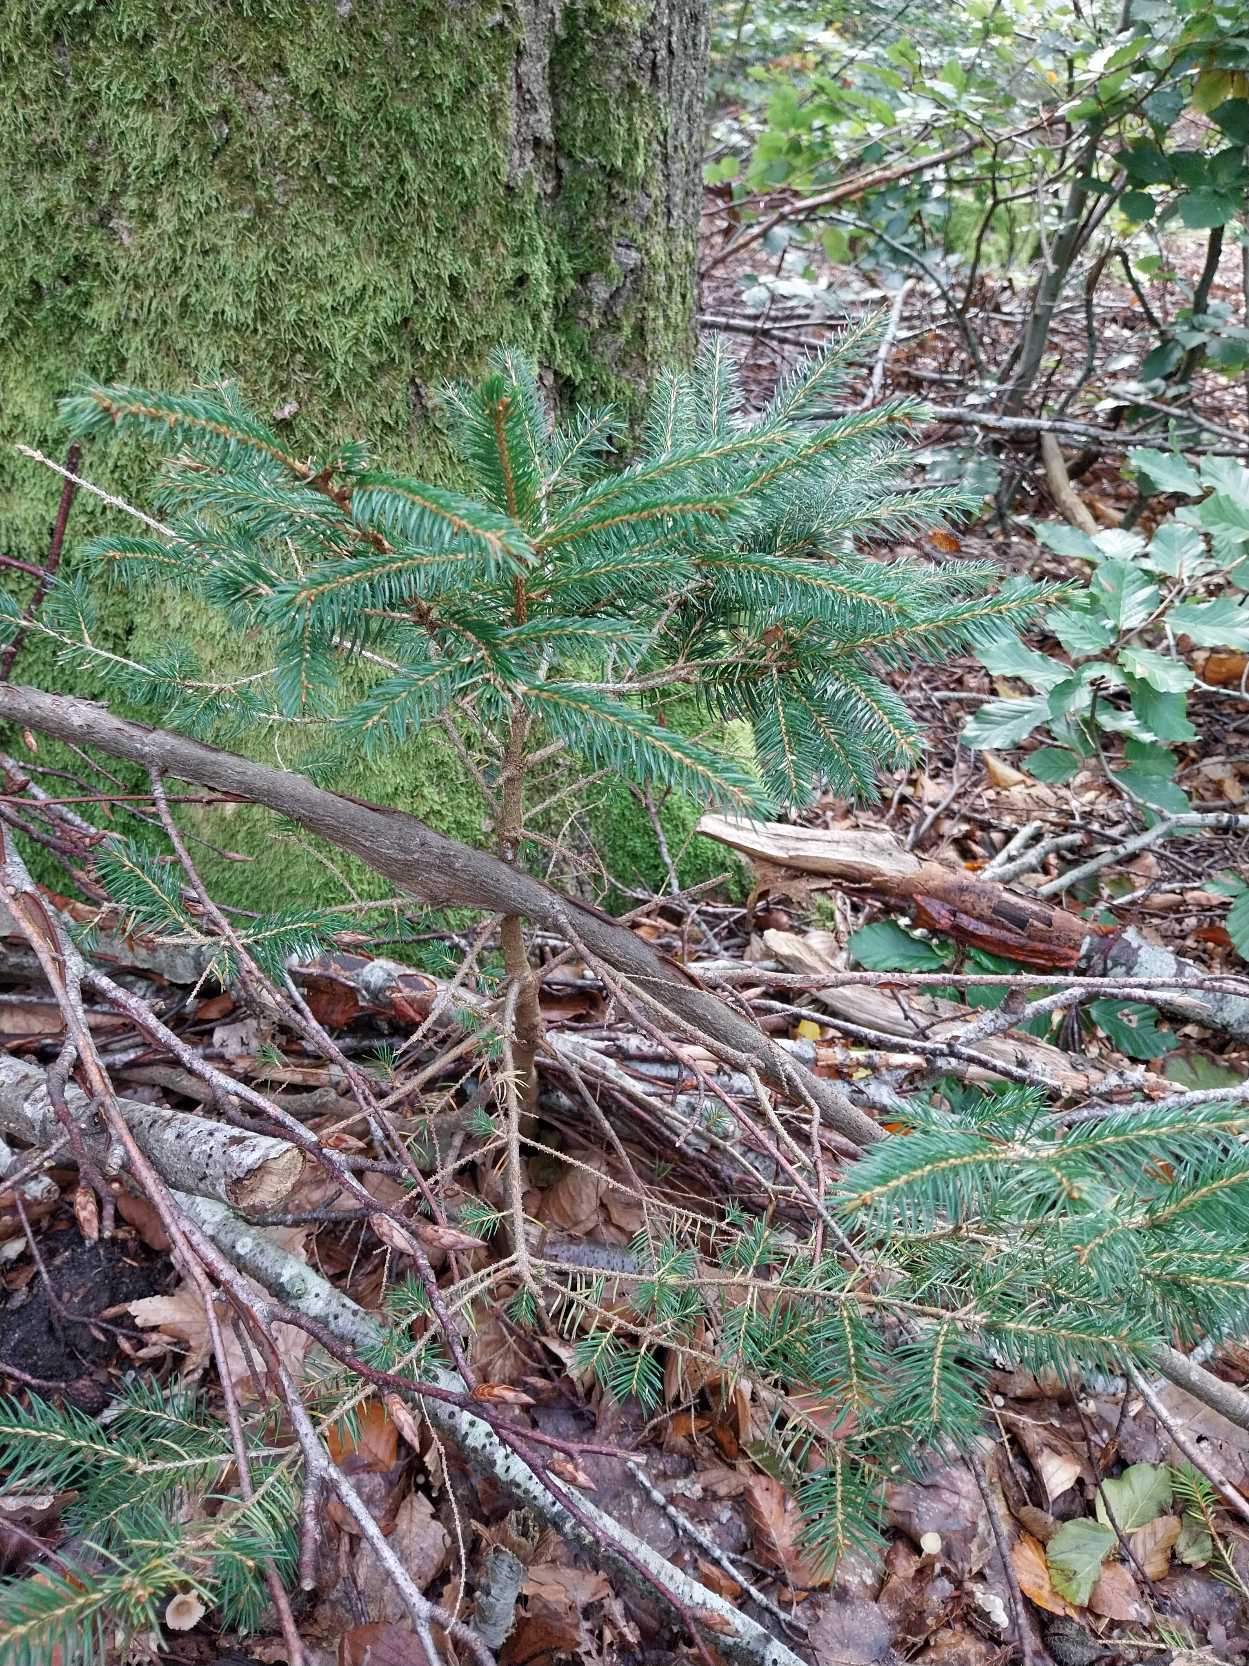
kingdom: Plantae
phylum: Tracheophyta
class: Pinopsida
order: Pinales
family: Pinaceae
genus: Picea
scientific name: Picea abies
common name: Rød-gran
